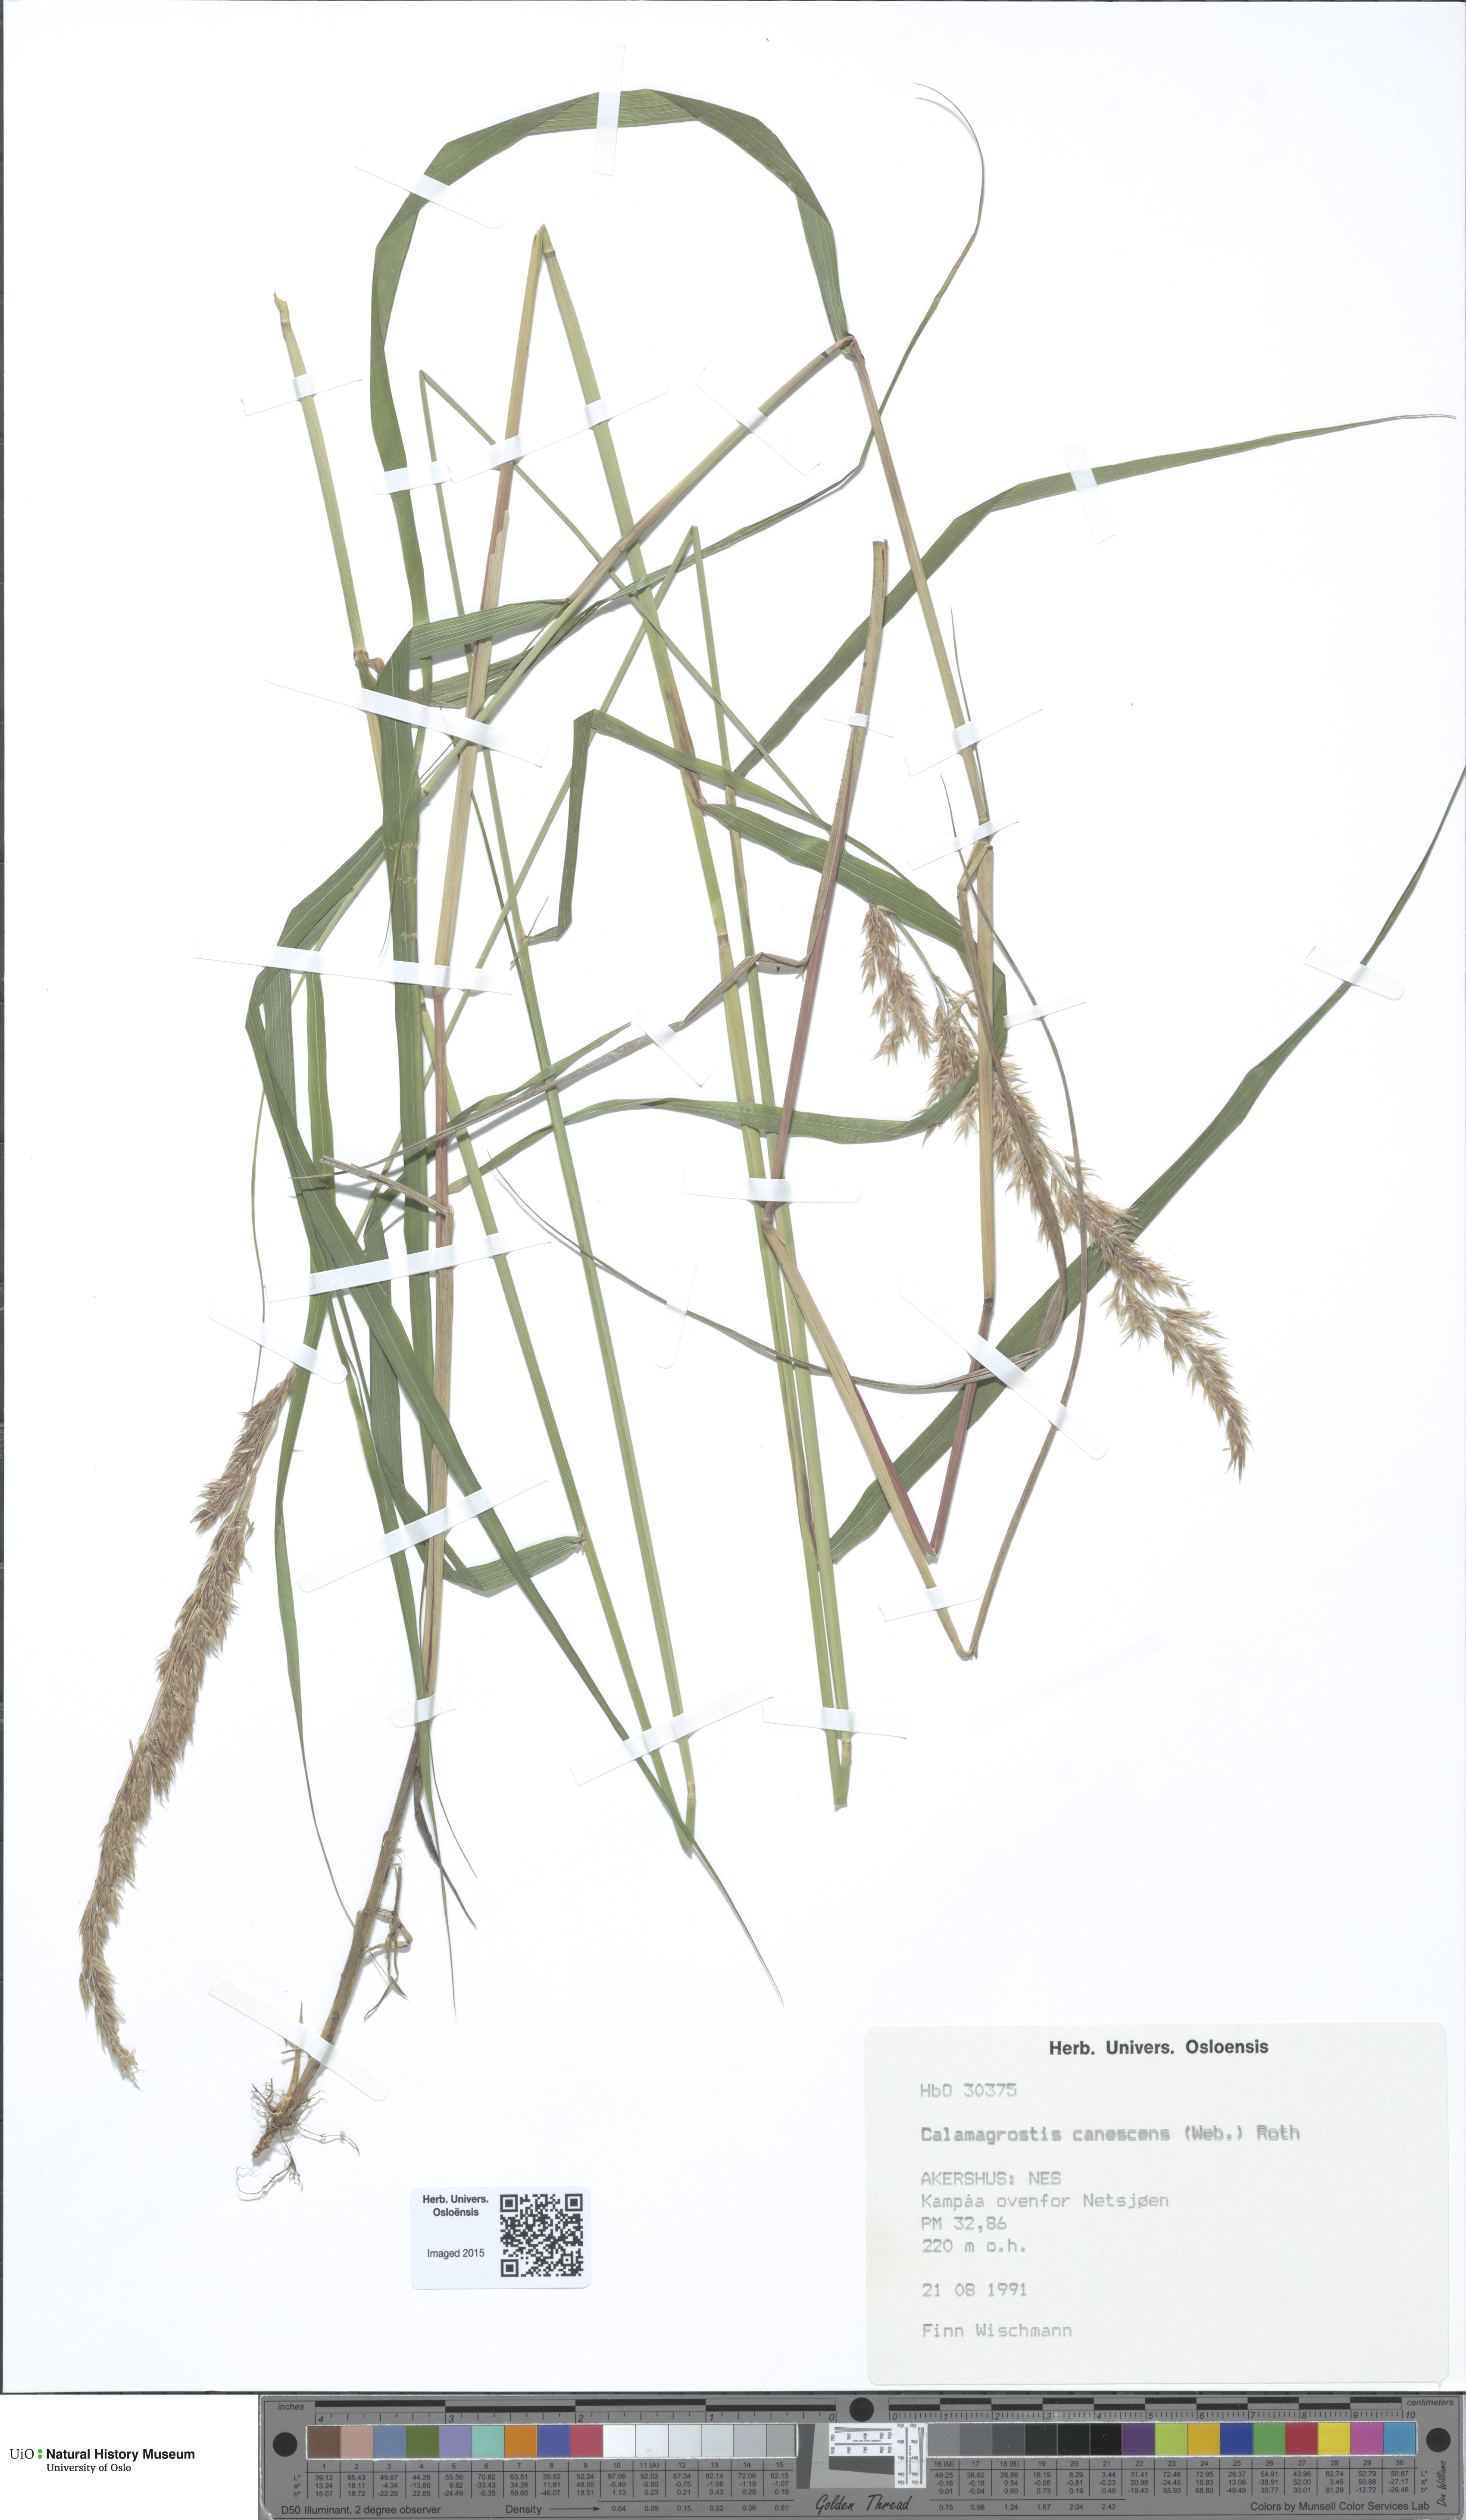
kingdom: Plantae
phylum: Tracheophyta
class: Liliopsida
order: Poales
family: Poaceae
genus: Calamagrostis
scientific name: Calamagrostis canescens
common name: Purple small-reed
